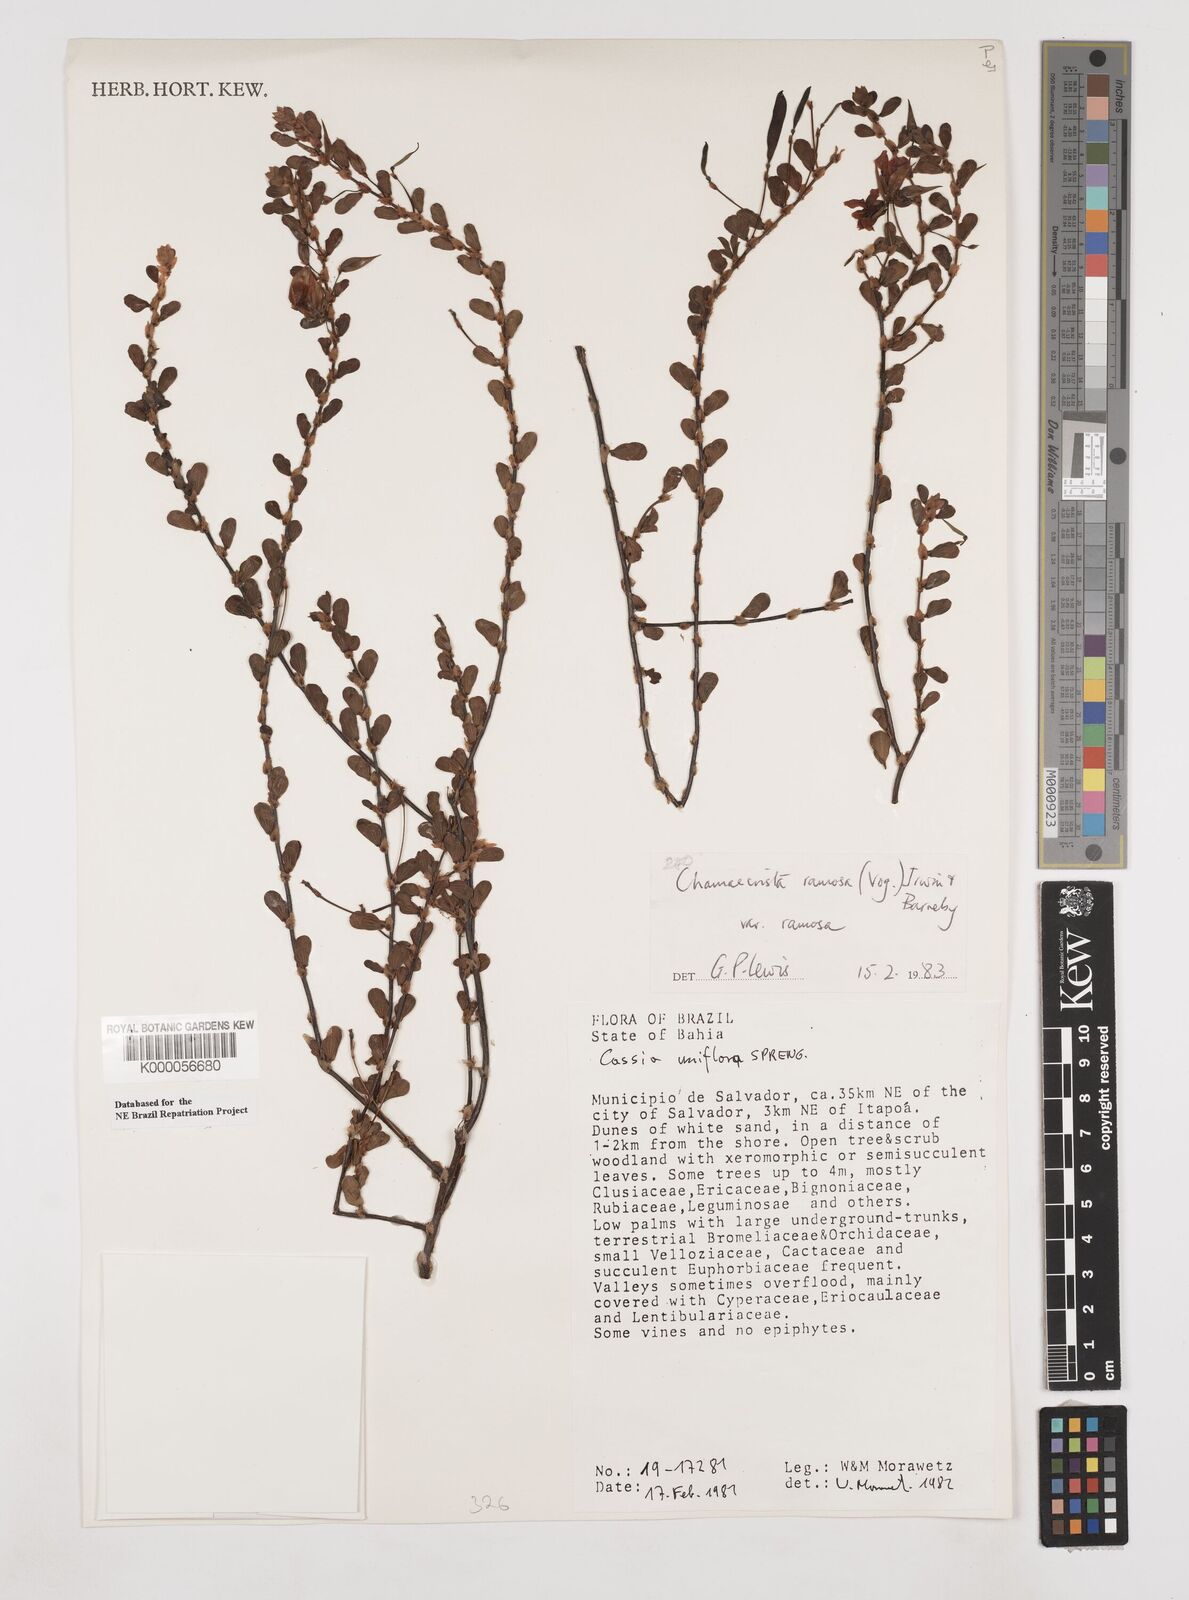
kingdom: Plantae
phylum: Tracheophyta
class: Magnoliopsida
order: Fabales
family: Fabaceae
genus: Chamaecrista
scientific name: Chamaecrista ramosa
